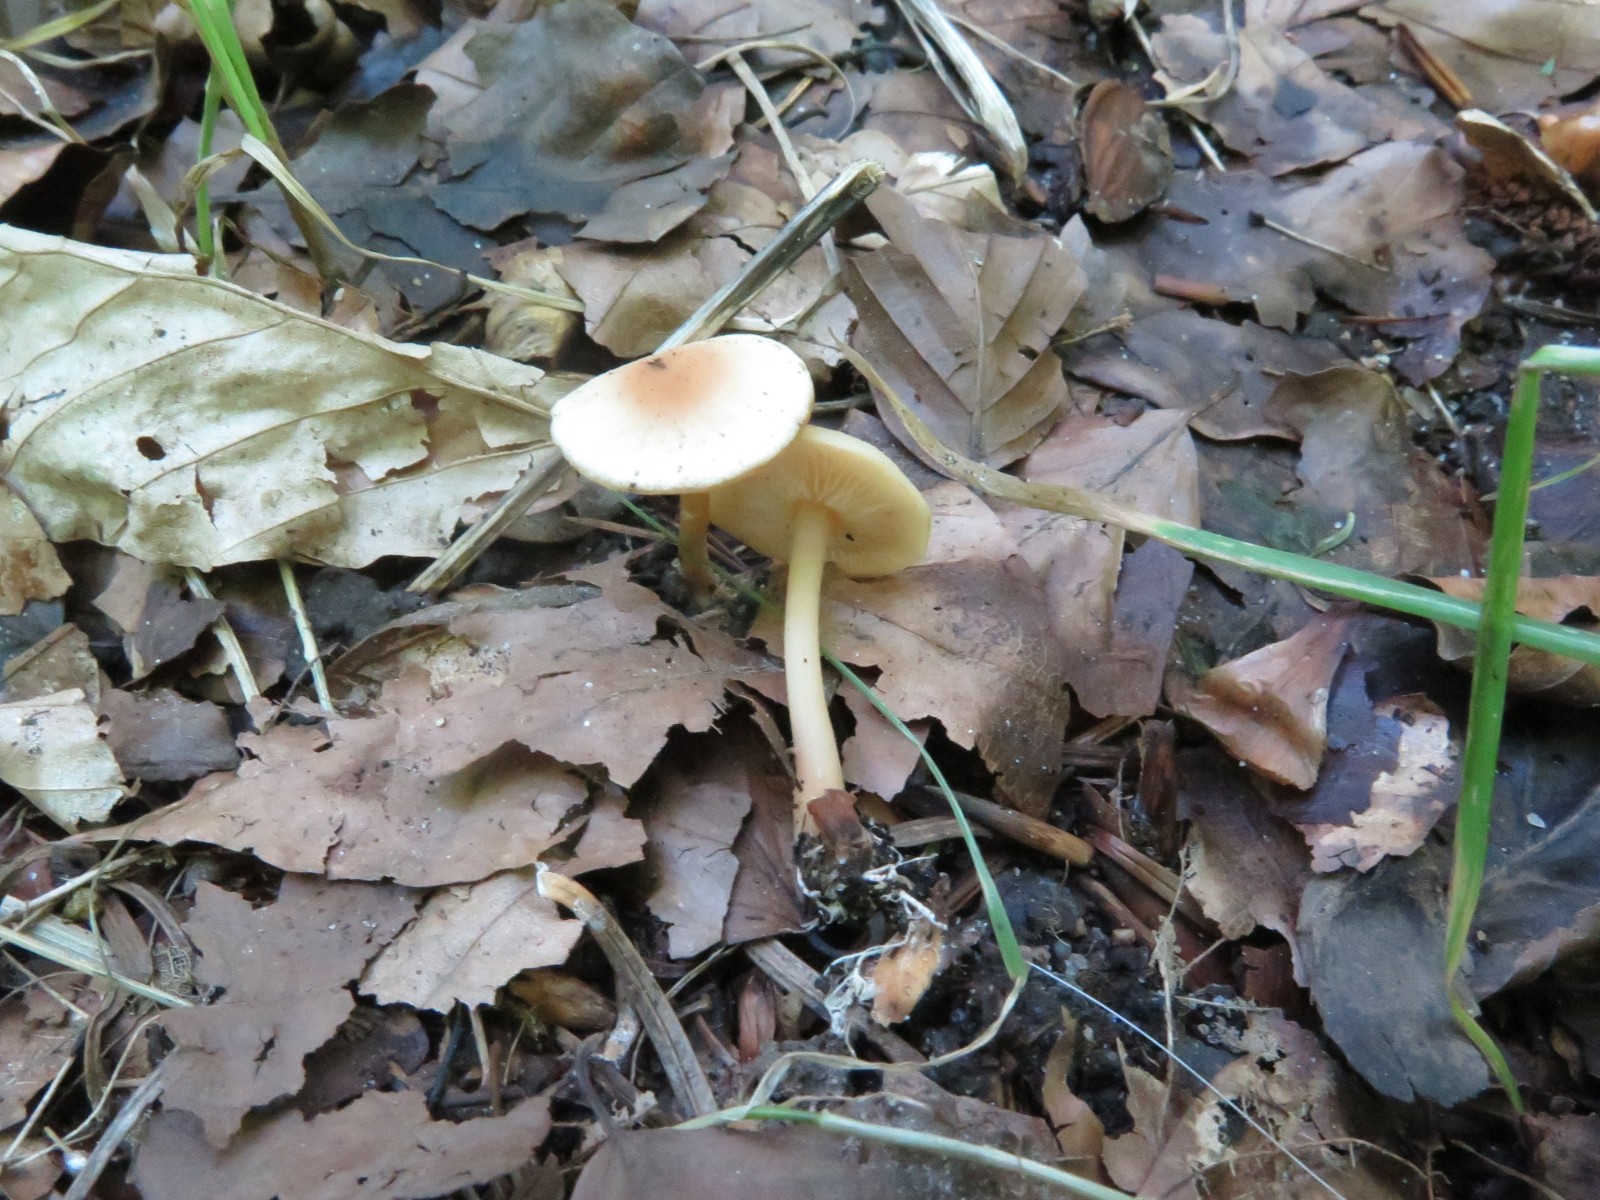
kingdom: Fungi
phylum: Basidiomycota
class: Agaricomycetes
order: Agaricales
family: Omphalotaceae
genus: Gymnopus
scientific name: Gymnopus dryophilus
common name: løv-fladhat
